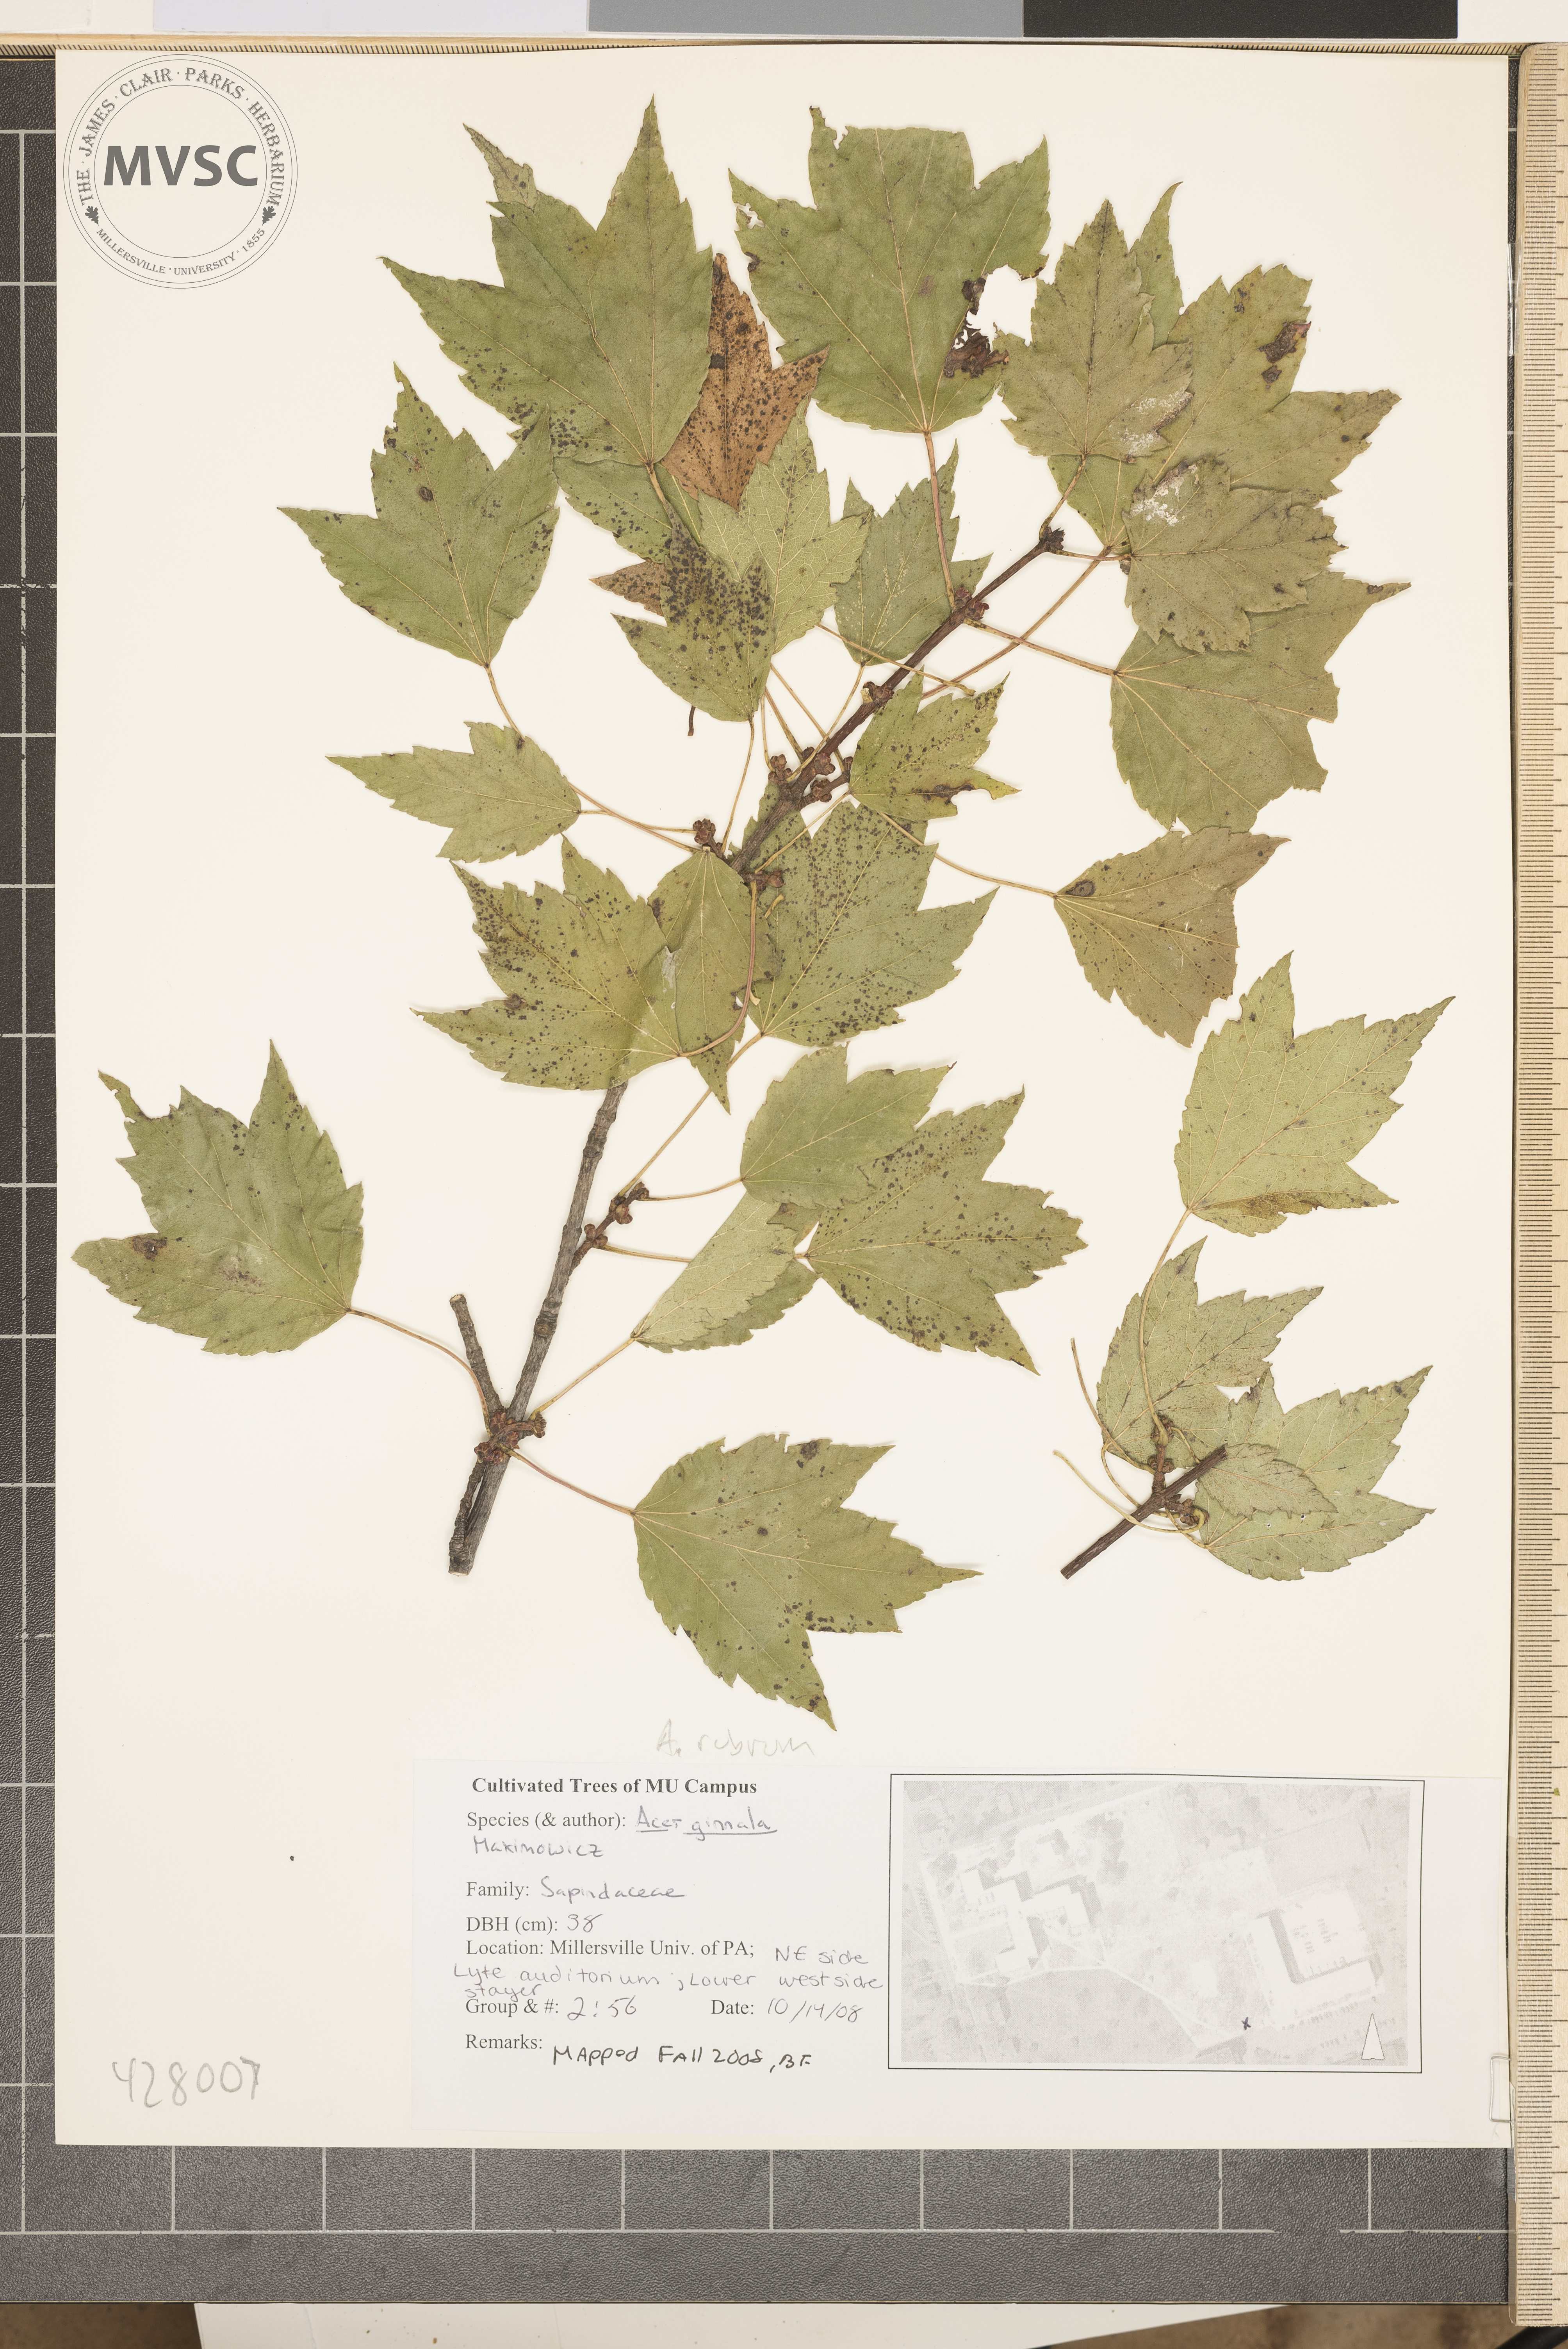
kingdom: Plantae
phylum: Tracheophyta
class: Magnoliopsida
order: Sapindales
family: Sapindaceae
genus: Acer
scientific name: Acer rubrum
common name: Red maple
